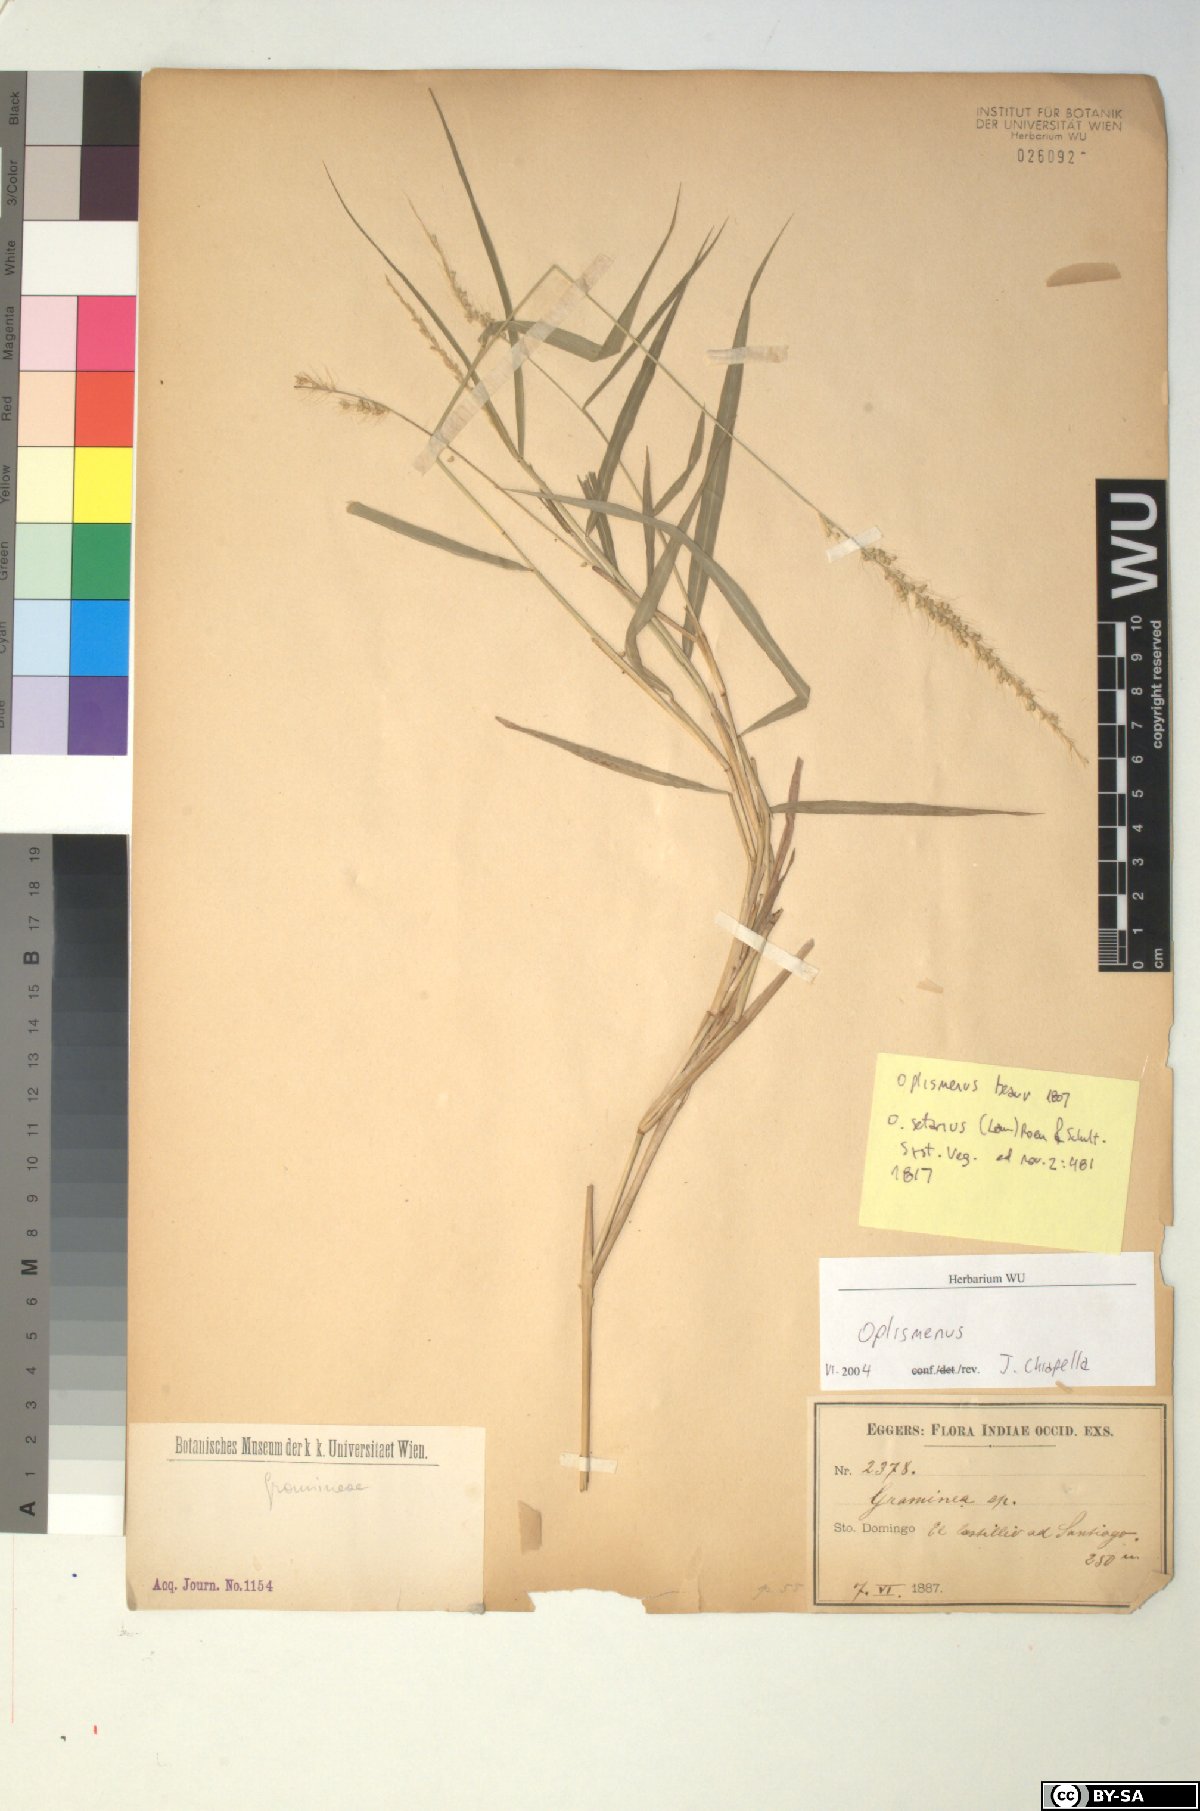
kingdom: Plantae
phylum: Tracheophyta
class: Liliopsida
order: Poales
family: Poaceae
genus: Oplismenus
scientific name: Oplismenus
